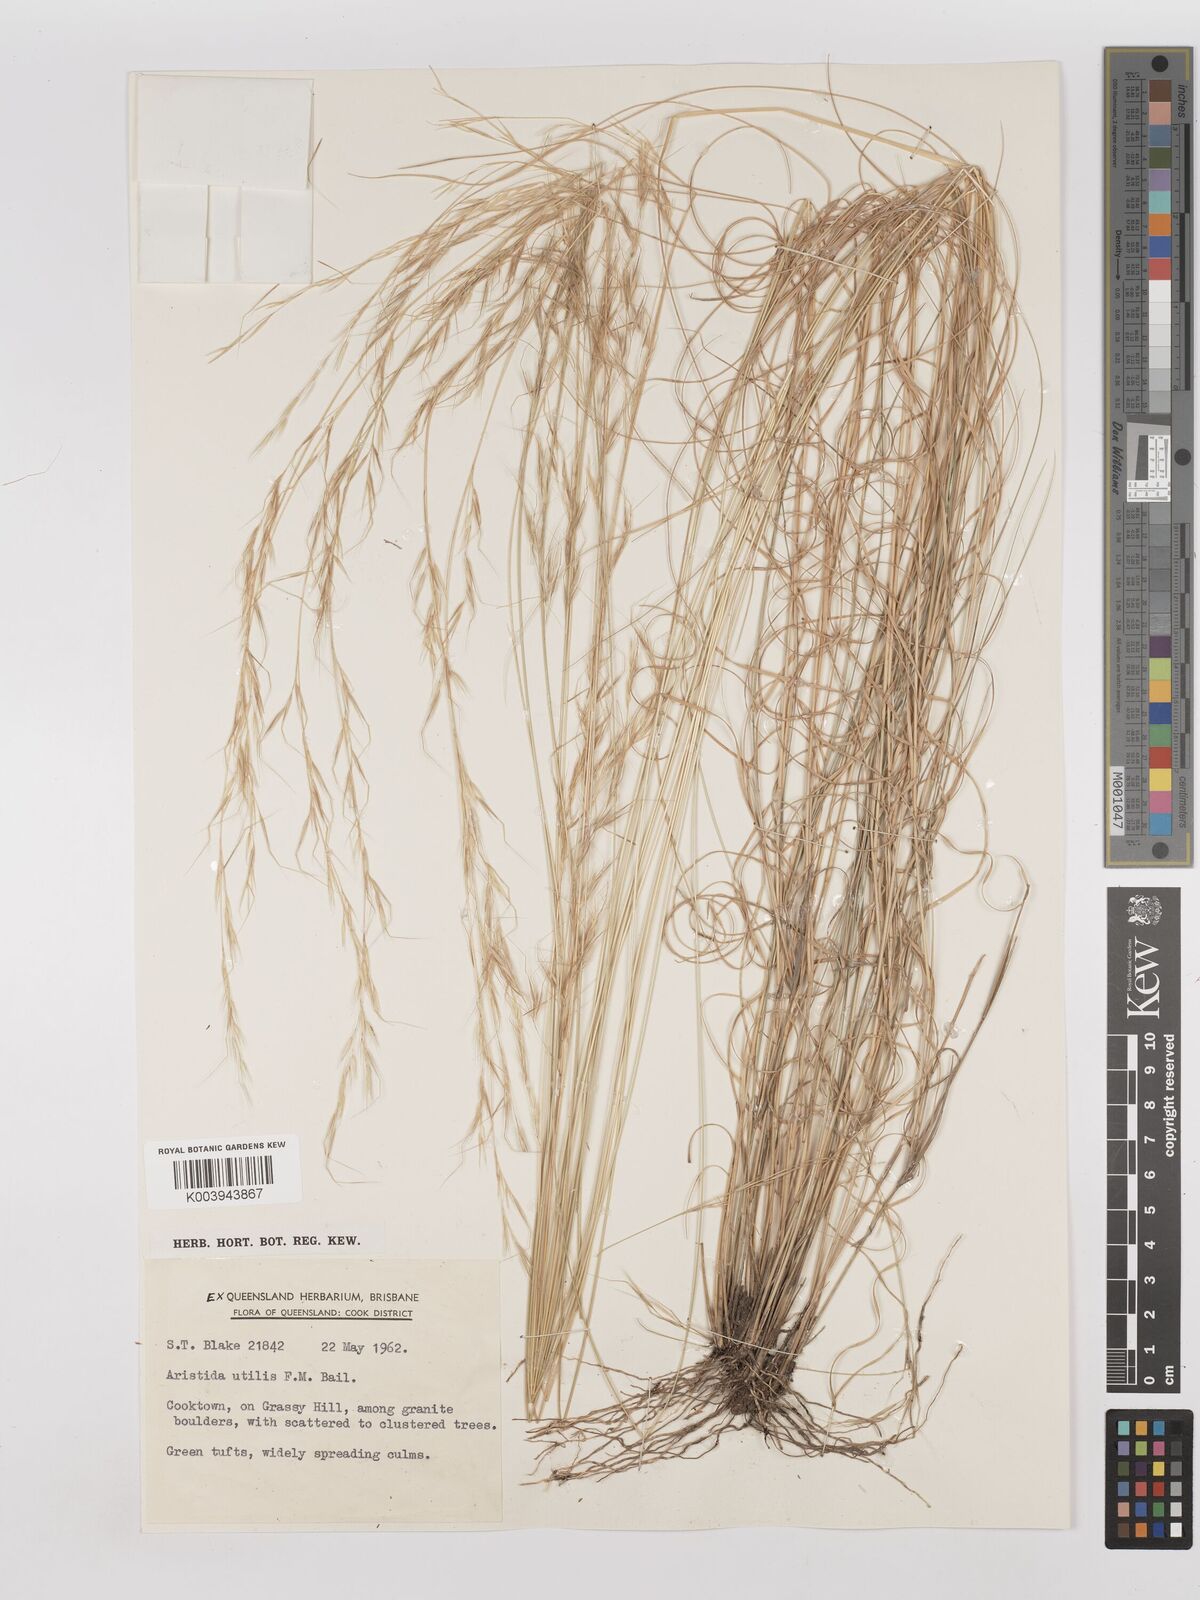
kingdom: Plantae
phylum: Tracheophyta
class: Liliopsida
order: Poales
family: Poaceae
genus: Aristida
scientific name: Aristida utilis
